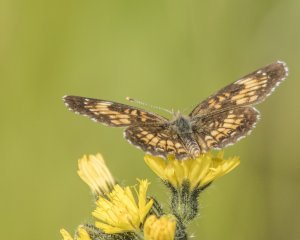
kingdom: Animalia
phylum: Arthropoda
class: Insecta
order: Lepidoptera
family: Nymphalidae
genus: Chlosyne
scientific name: Chlosyne harrisii
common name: Harris's Checkerspot
